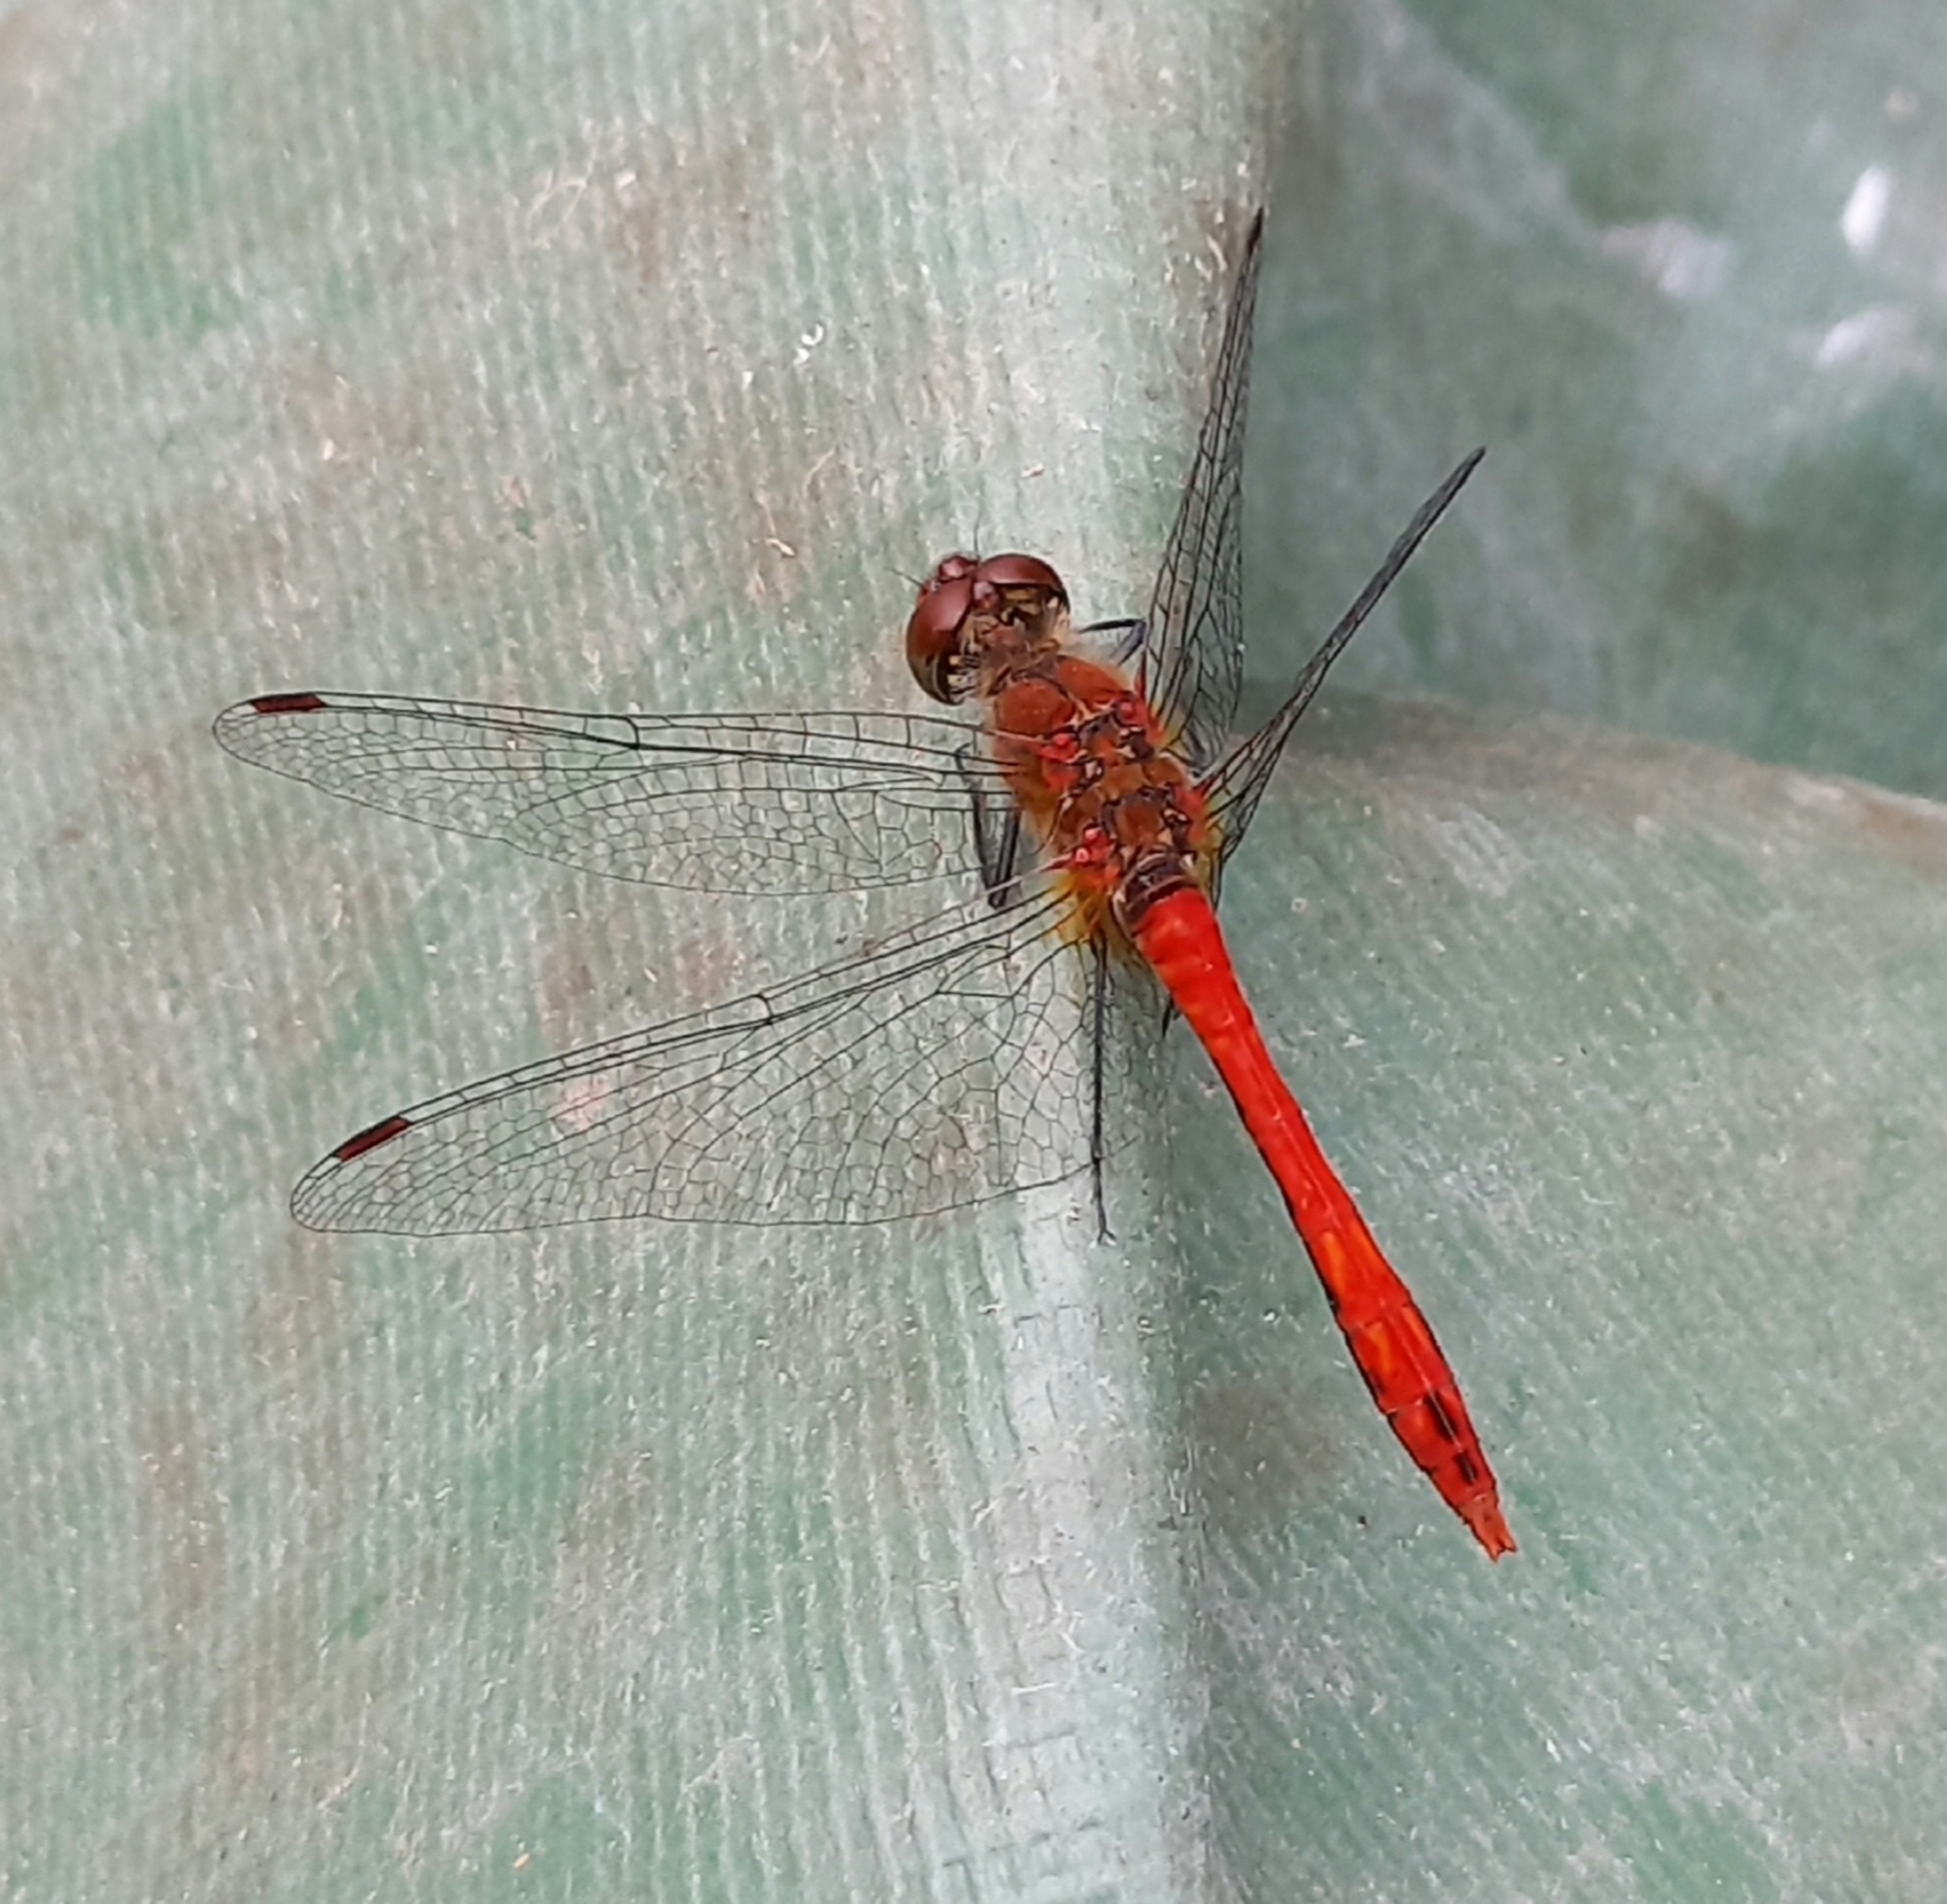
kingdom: Animalia
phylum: Arthropoda
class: Insecta
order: Odonata
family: Libellulidae
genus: Sympetrum
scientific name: Sympetrum sanguineum
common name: Blodrød hedelibel
